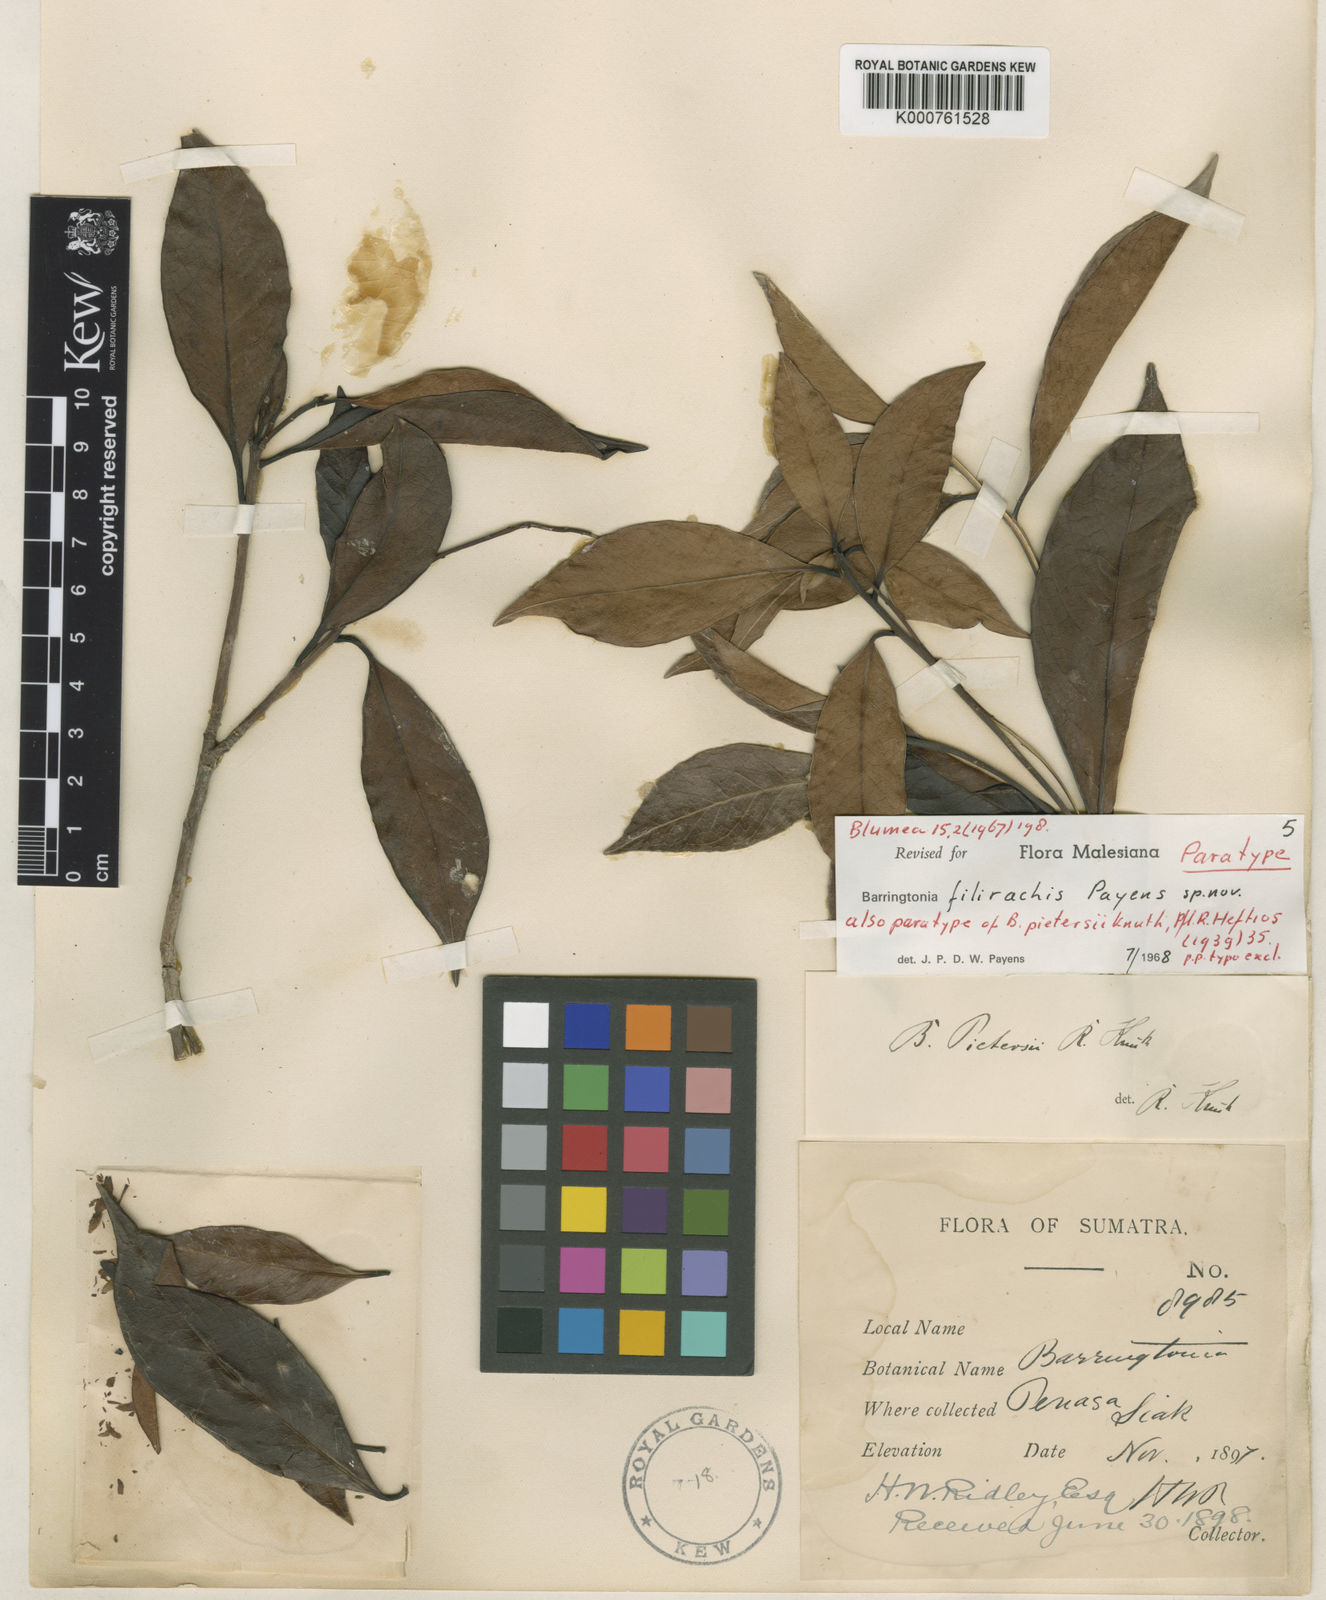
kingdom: Plantae
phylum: Tracheophyta
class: Magnoliopsida
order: Ericales
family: Lecythidaceae
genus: Barringtonia
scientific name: Barringtonia filirachis
